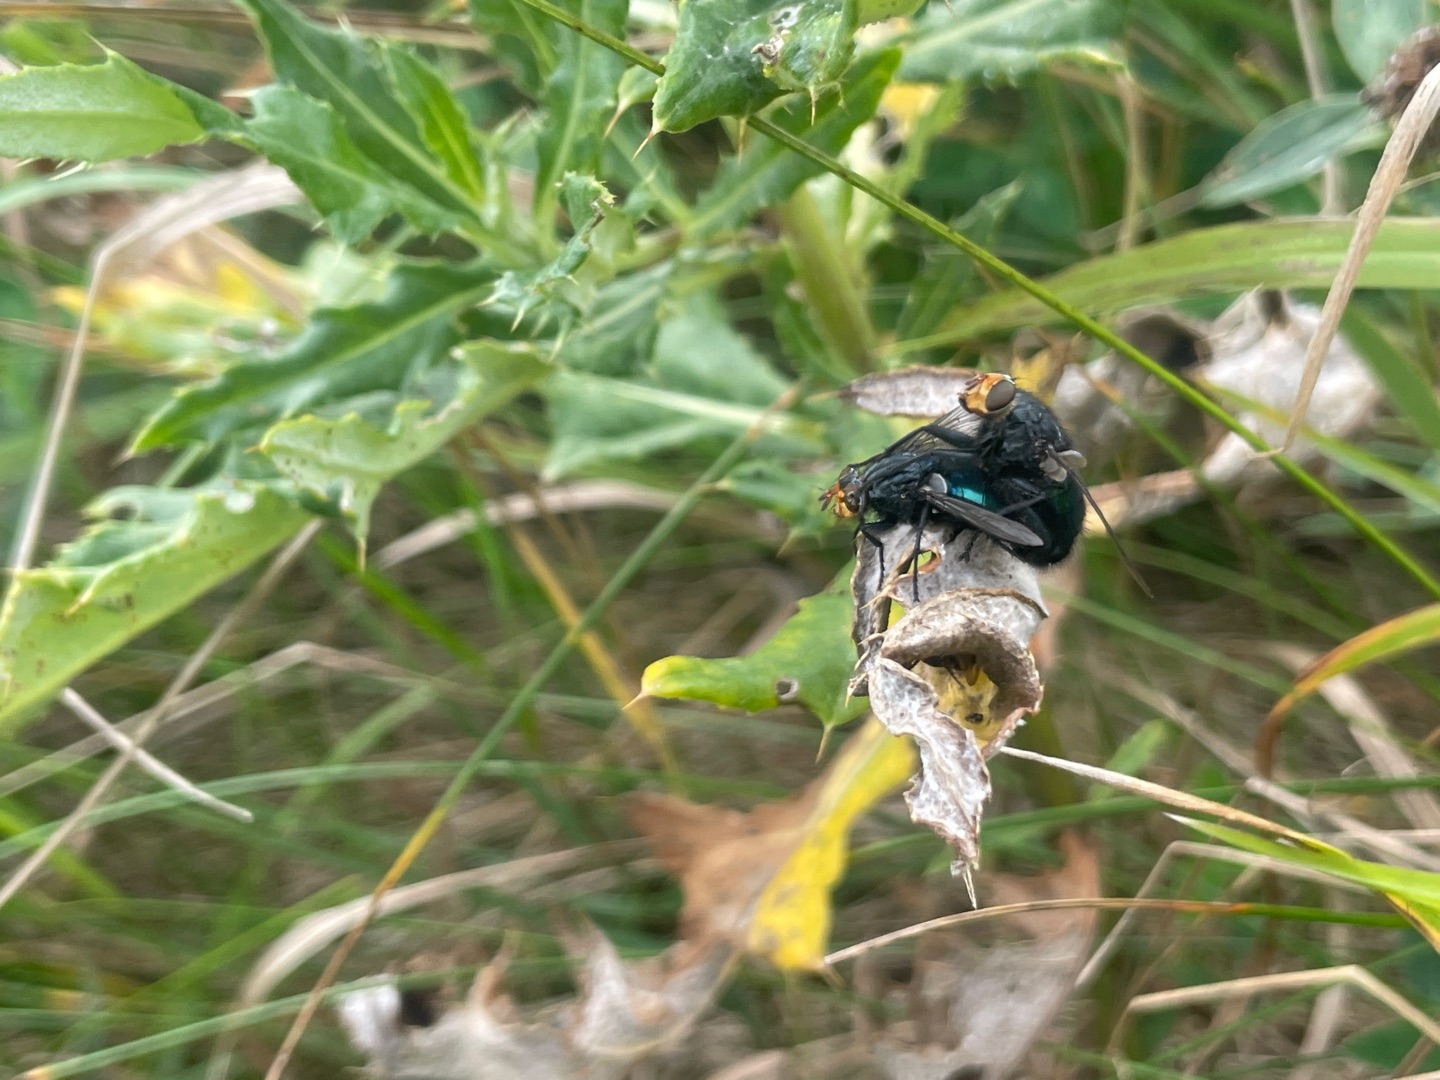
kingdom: Animalia
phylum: Arthropoda
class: Insecta
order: Diptera
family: Calliphoridae
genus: Cynomya
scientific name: Cynomya mortuorum
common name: Dødsflue
